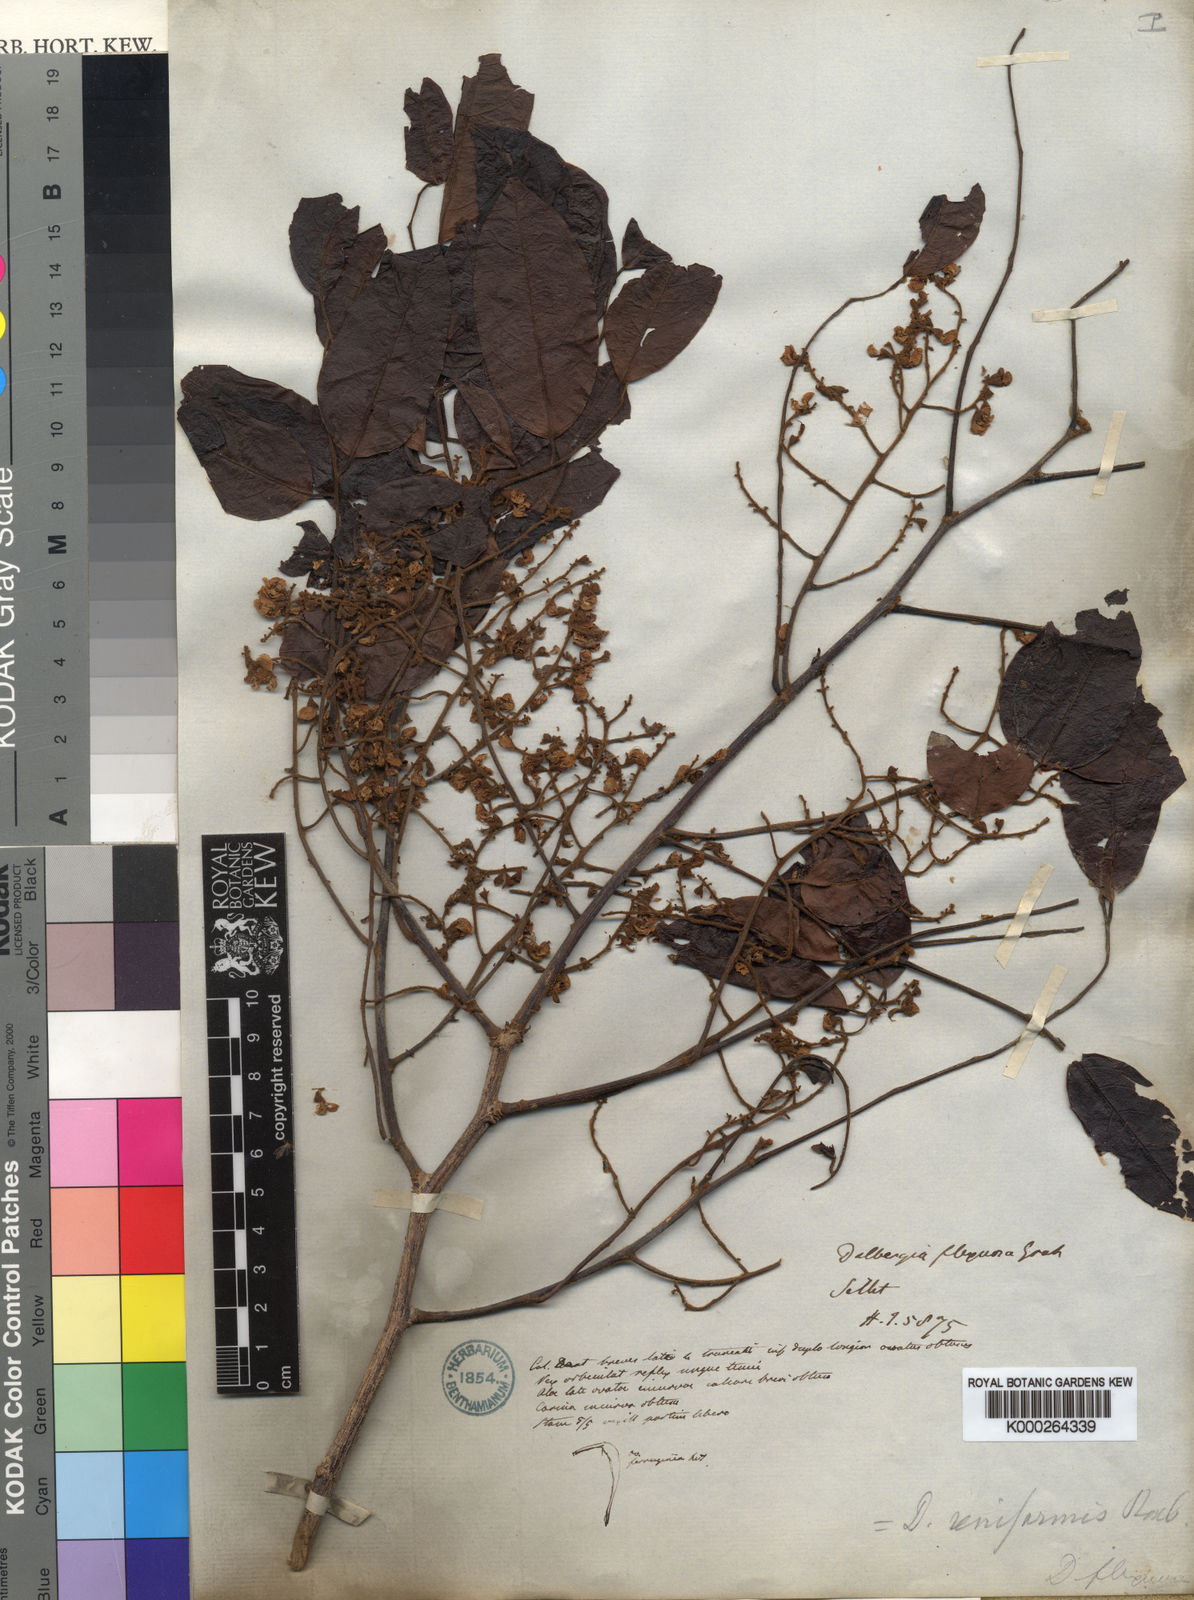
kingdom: Plantae
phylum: Tracheophyta
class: Magnoliopsida
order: Fabales
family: Fabaceae
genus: Dalbergia
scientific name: Dalbergia reniformis
